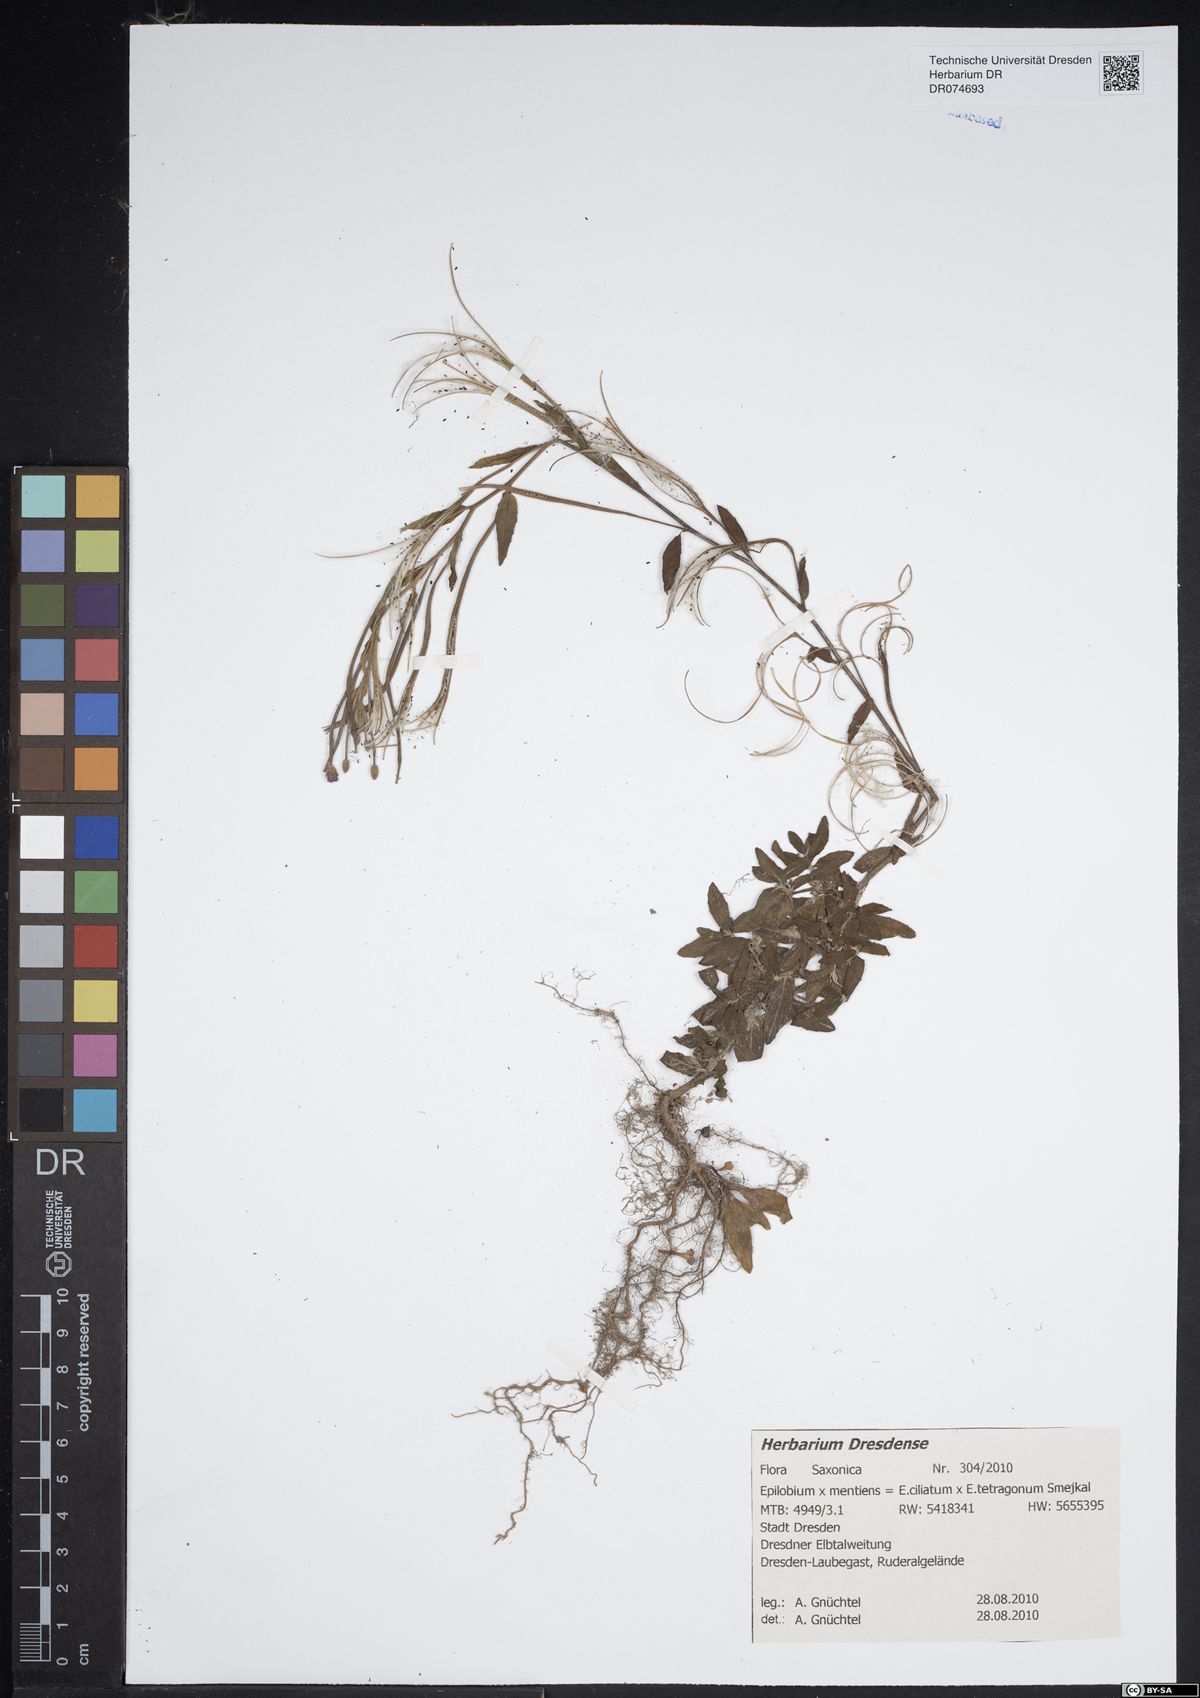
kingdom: Plantae
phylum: Tracheophyta
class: Magnoliopsida
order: Myrtales
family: Onagraceae
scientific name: Onagraceae
